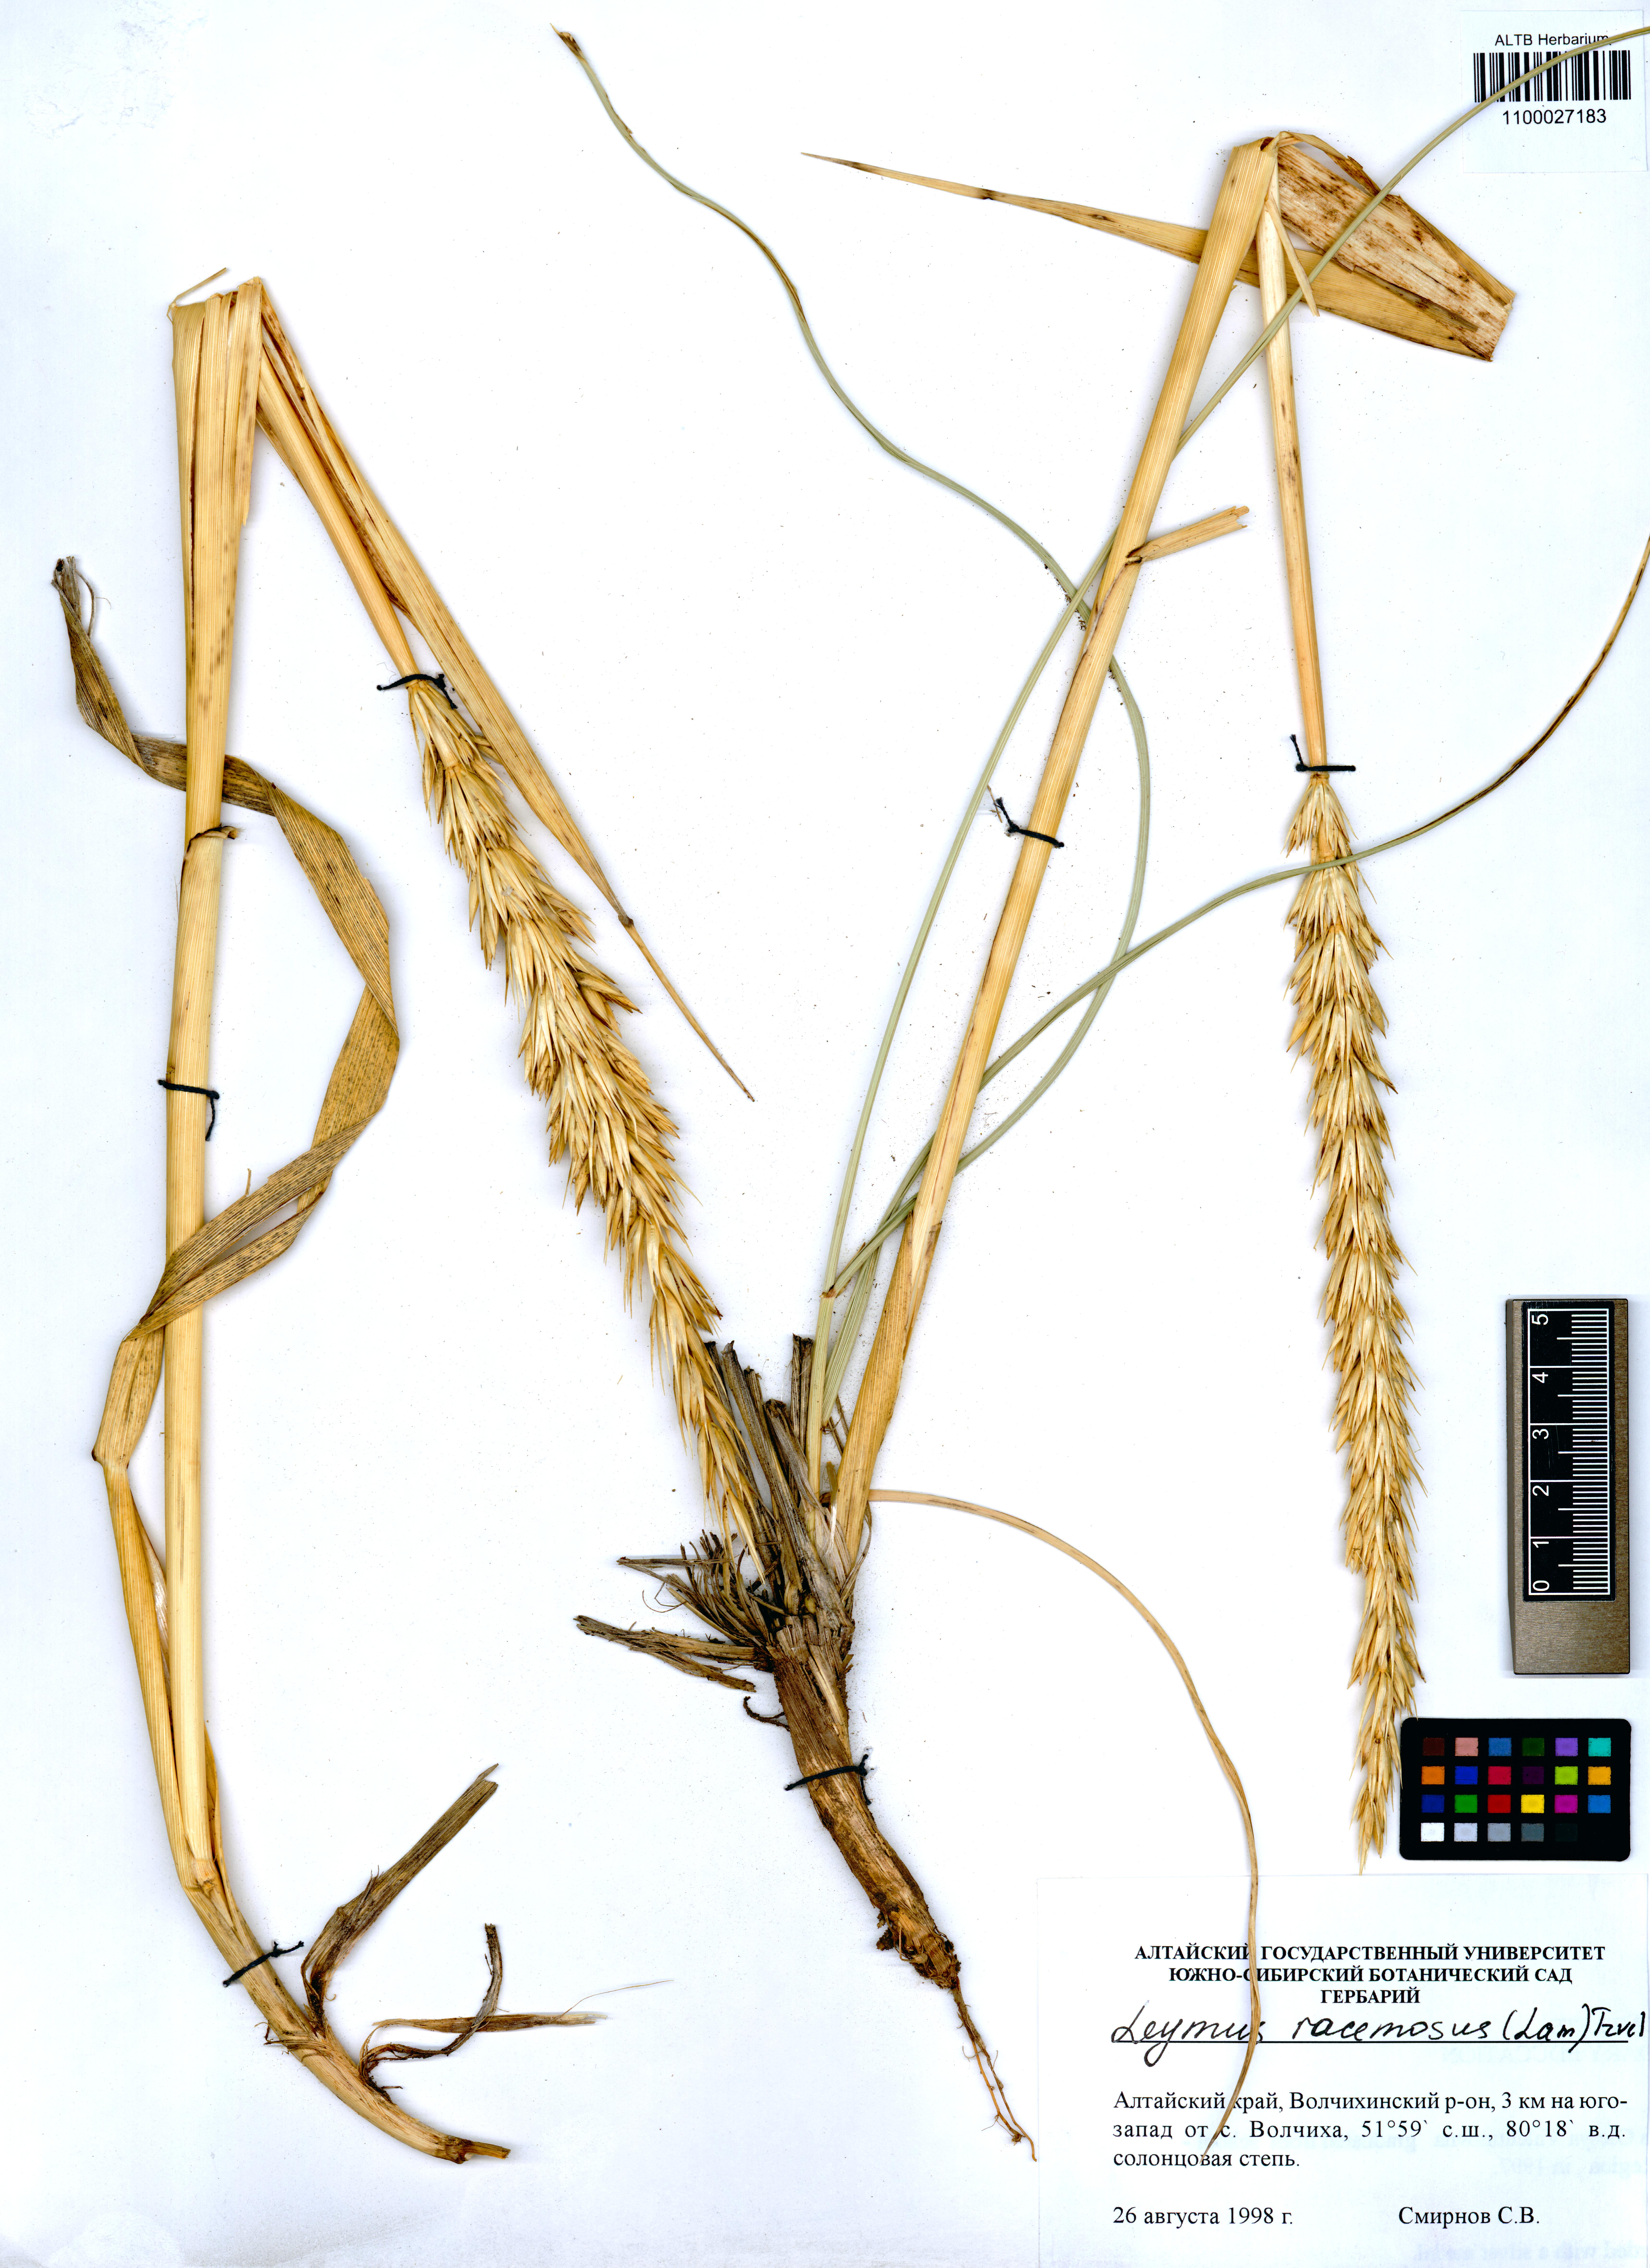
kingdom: Plantae
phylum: Tracheophyta
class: Liliopsida
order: Poales
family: Poaceae
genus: Leymus
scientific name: Leymus racemosus
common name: Mammoth wildrye
